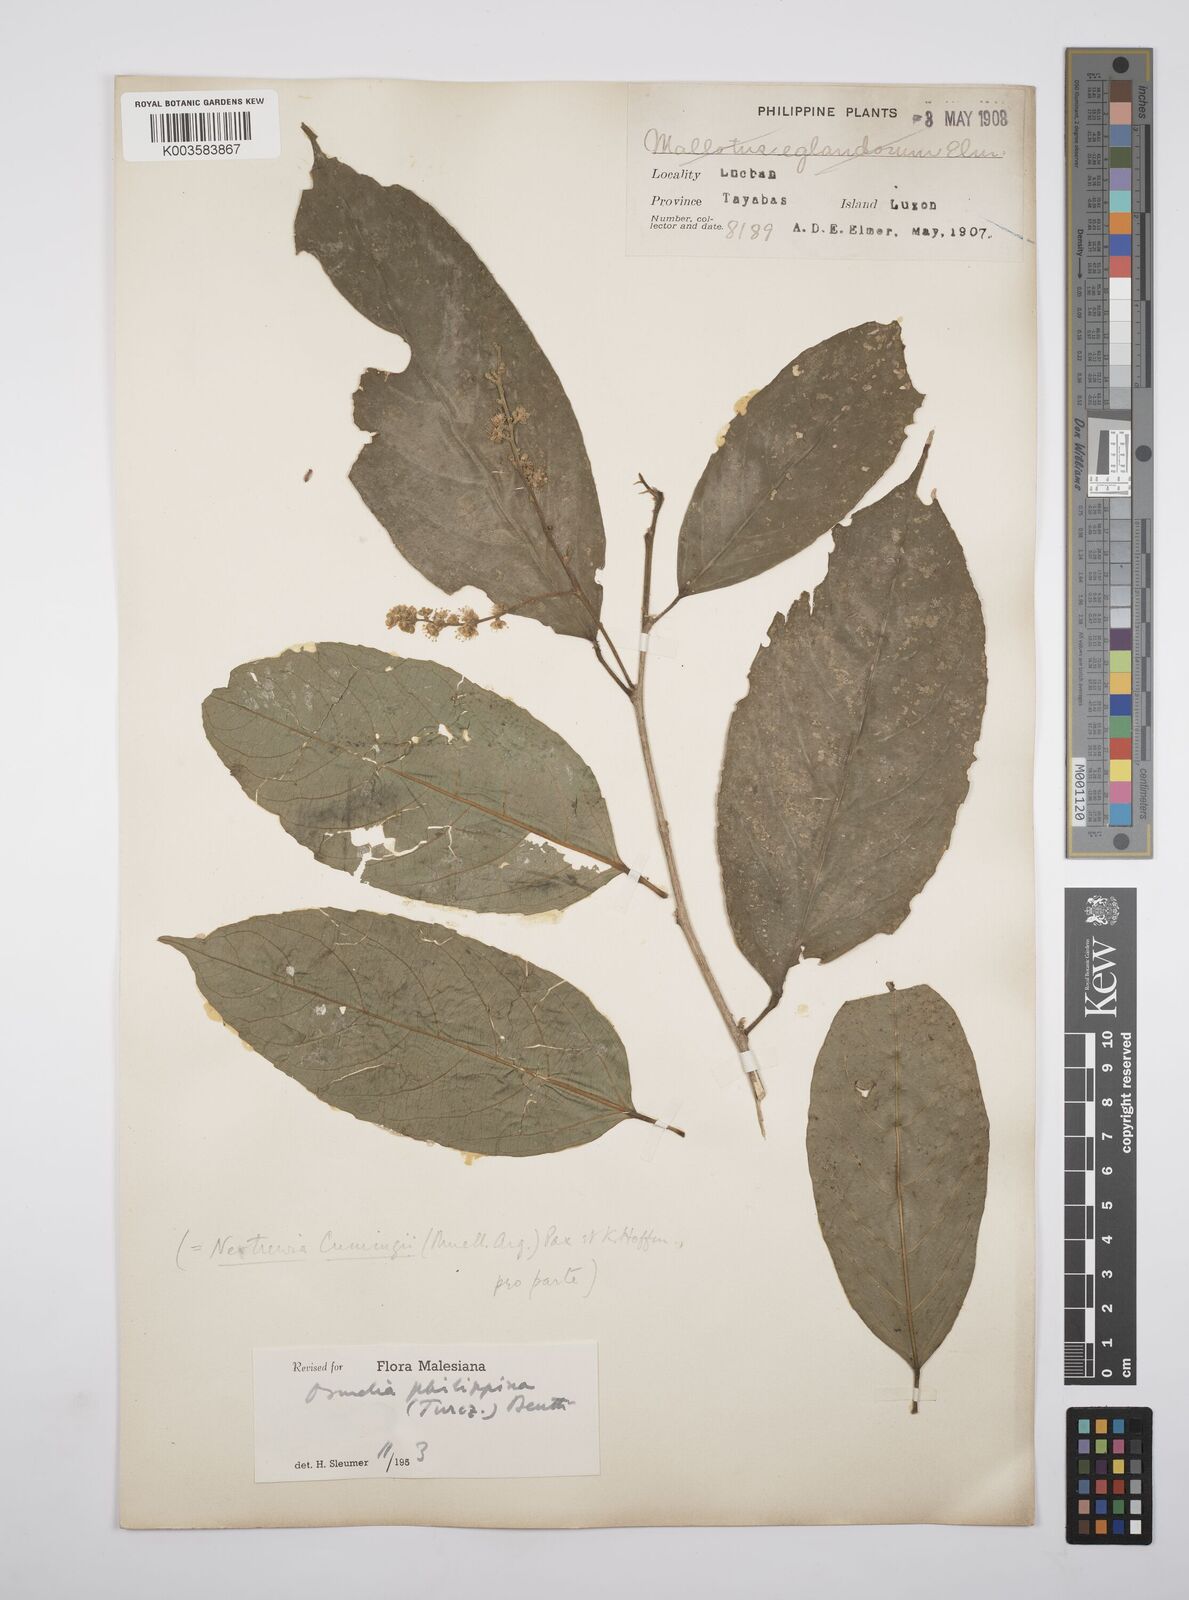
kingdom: Plantae
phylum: Tracheophyta
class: Magnoliopsida
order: Malpighiales
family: Salicaceae
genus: Osmelia
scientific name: Osmelia philippina
